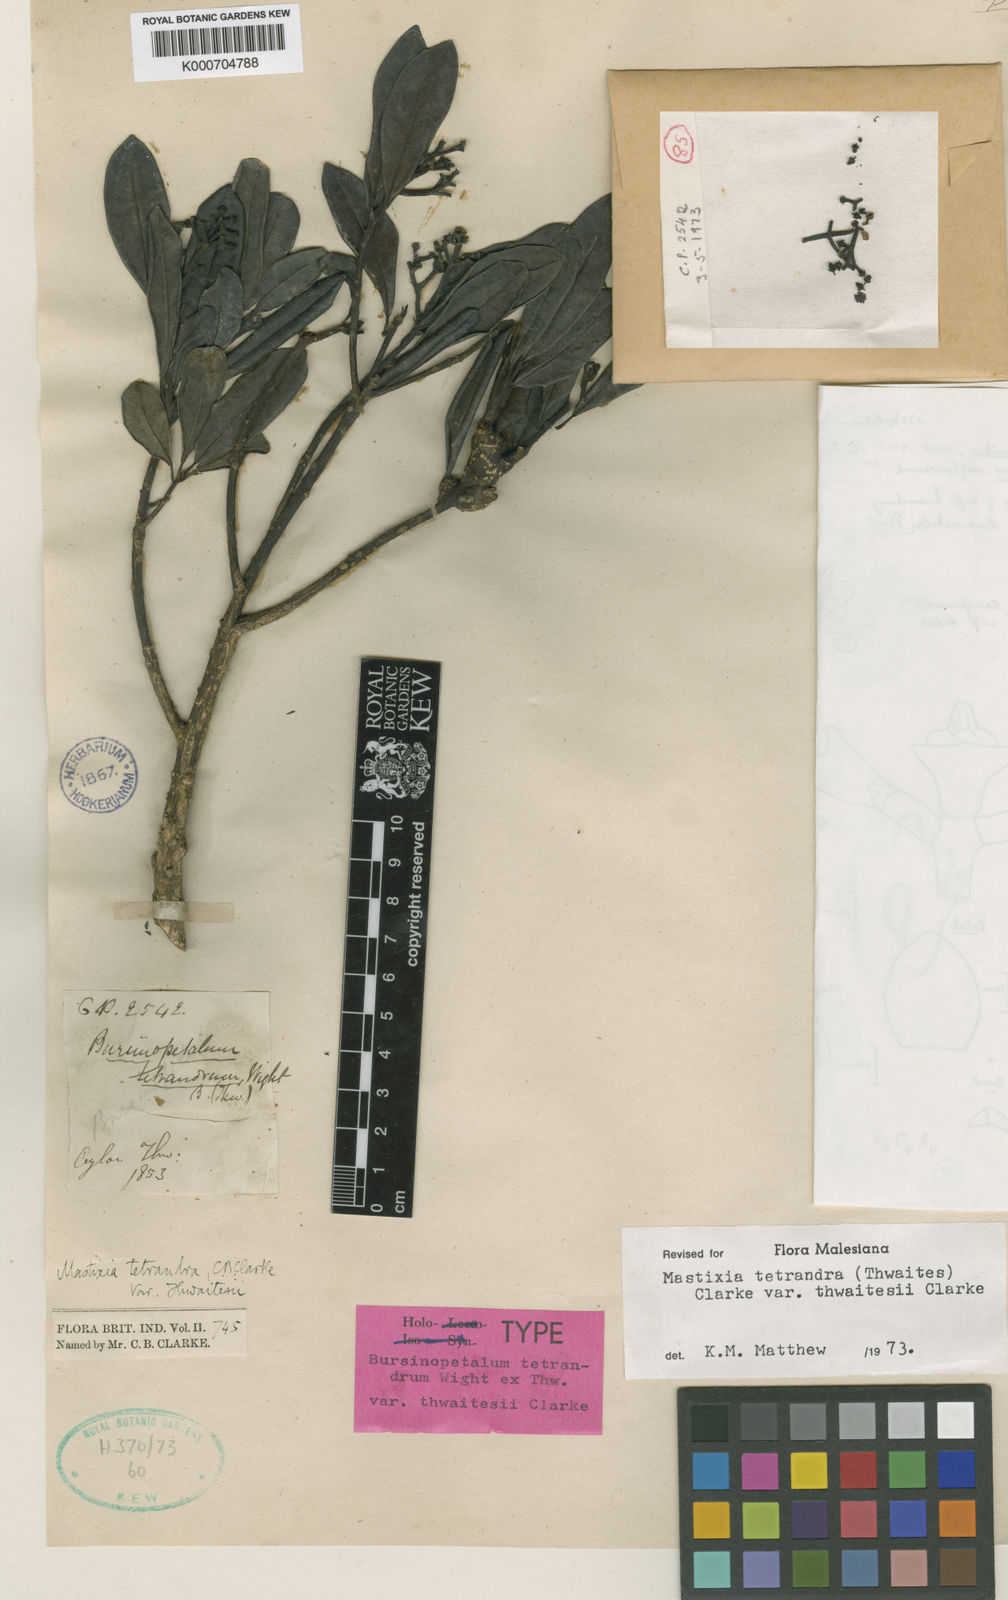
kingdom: Plantae
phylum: Tracheophyta
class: Magnoliopsida
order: Cornales
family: Nyssaceae
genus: Mastixia
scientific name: Mastixia montana
